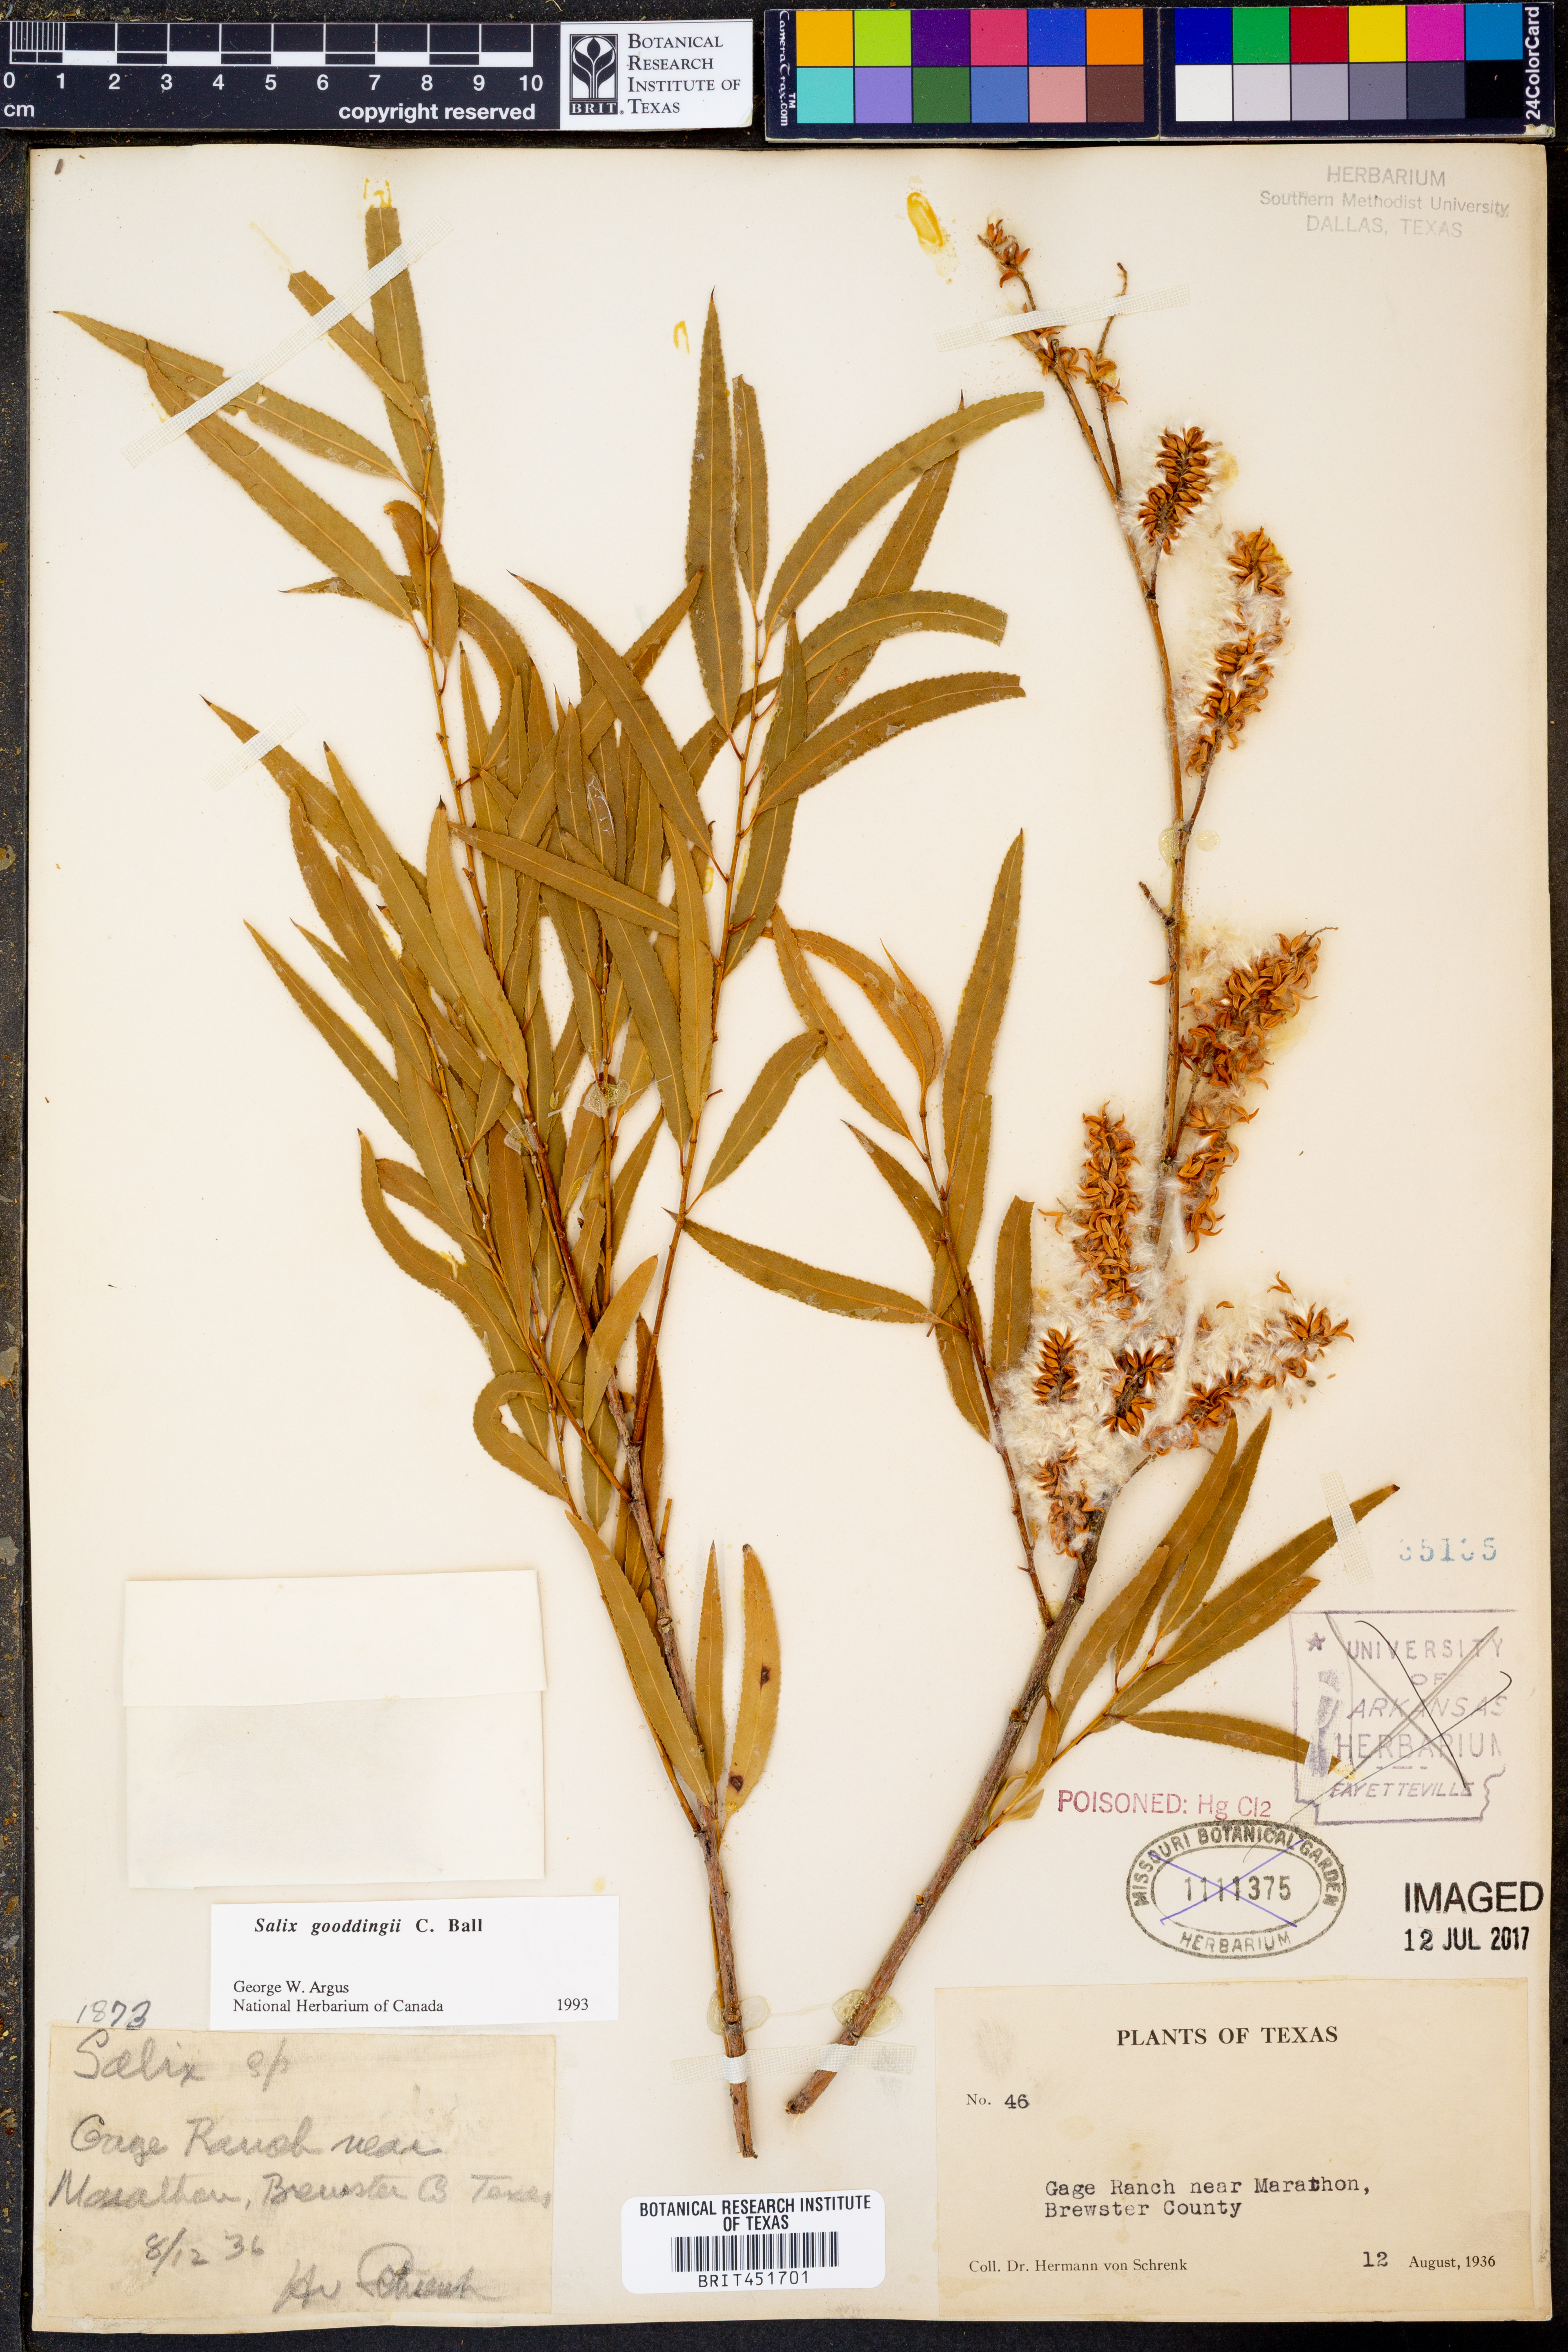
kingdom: Plantae
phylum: Tracheophyta
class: Magnoliopsida
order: Malpighiales
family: Salicaceae
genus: Salix
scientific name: Salix gooddingii
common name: Goodding's willow
